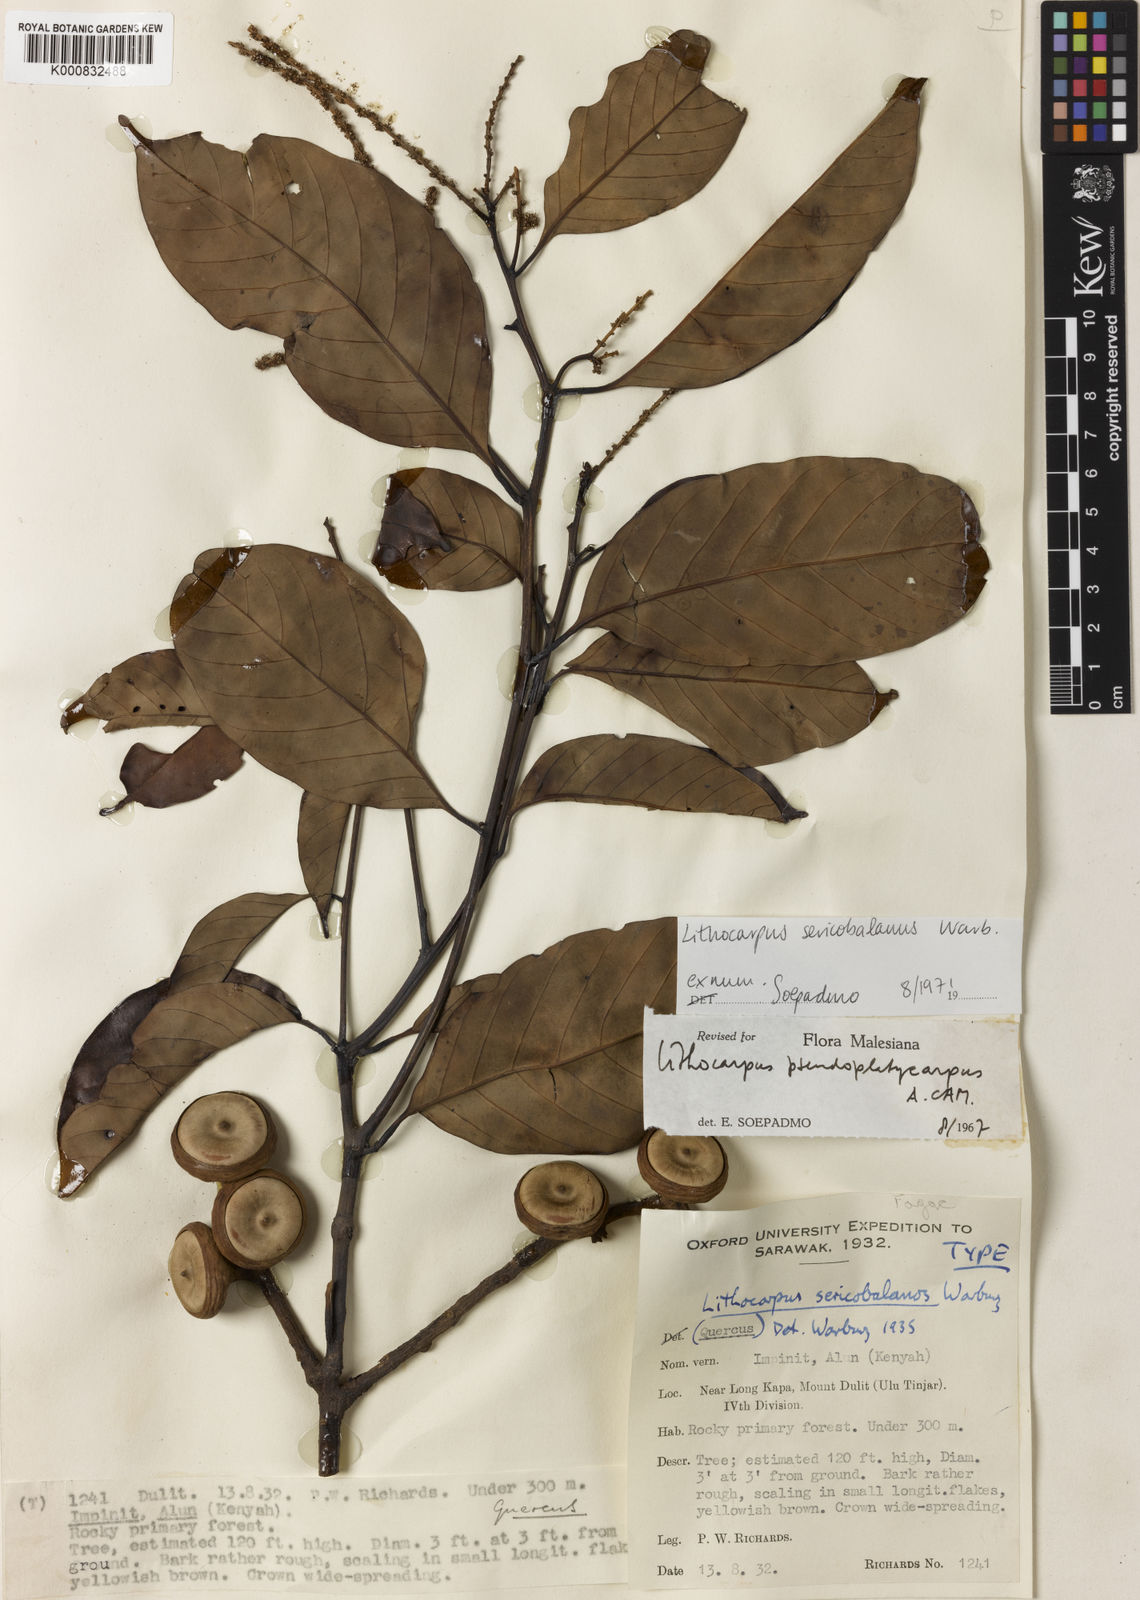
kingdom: Plantae
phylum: Tracheophyta
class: Magnoliopsida
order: Fagales
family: Fagaceae
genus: Lithocarpus
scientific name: Lithocarpus sericobalanos
